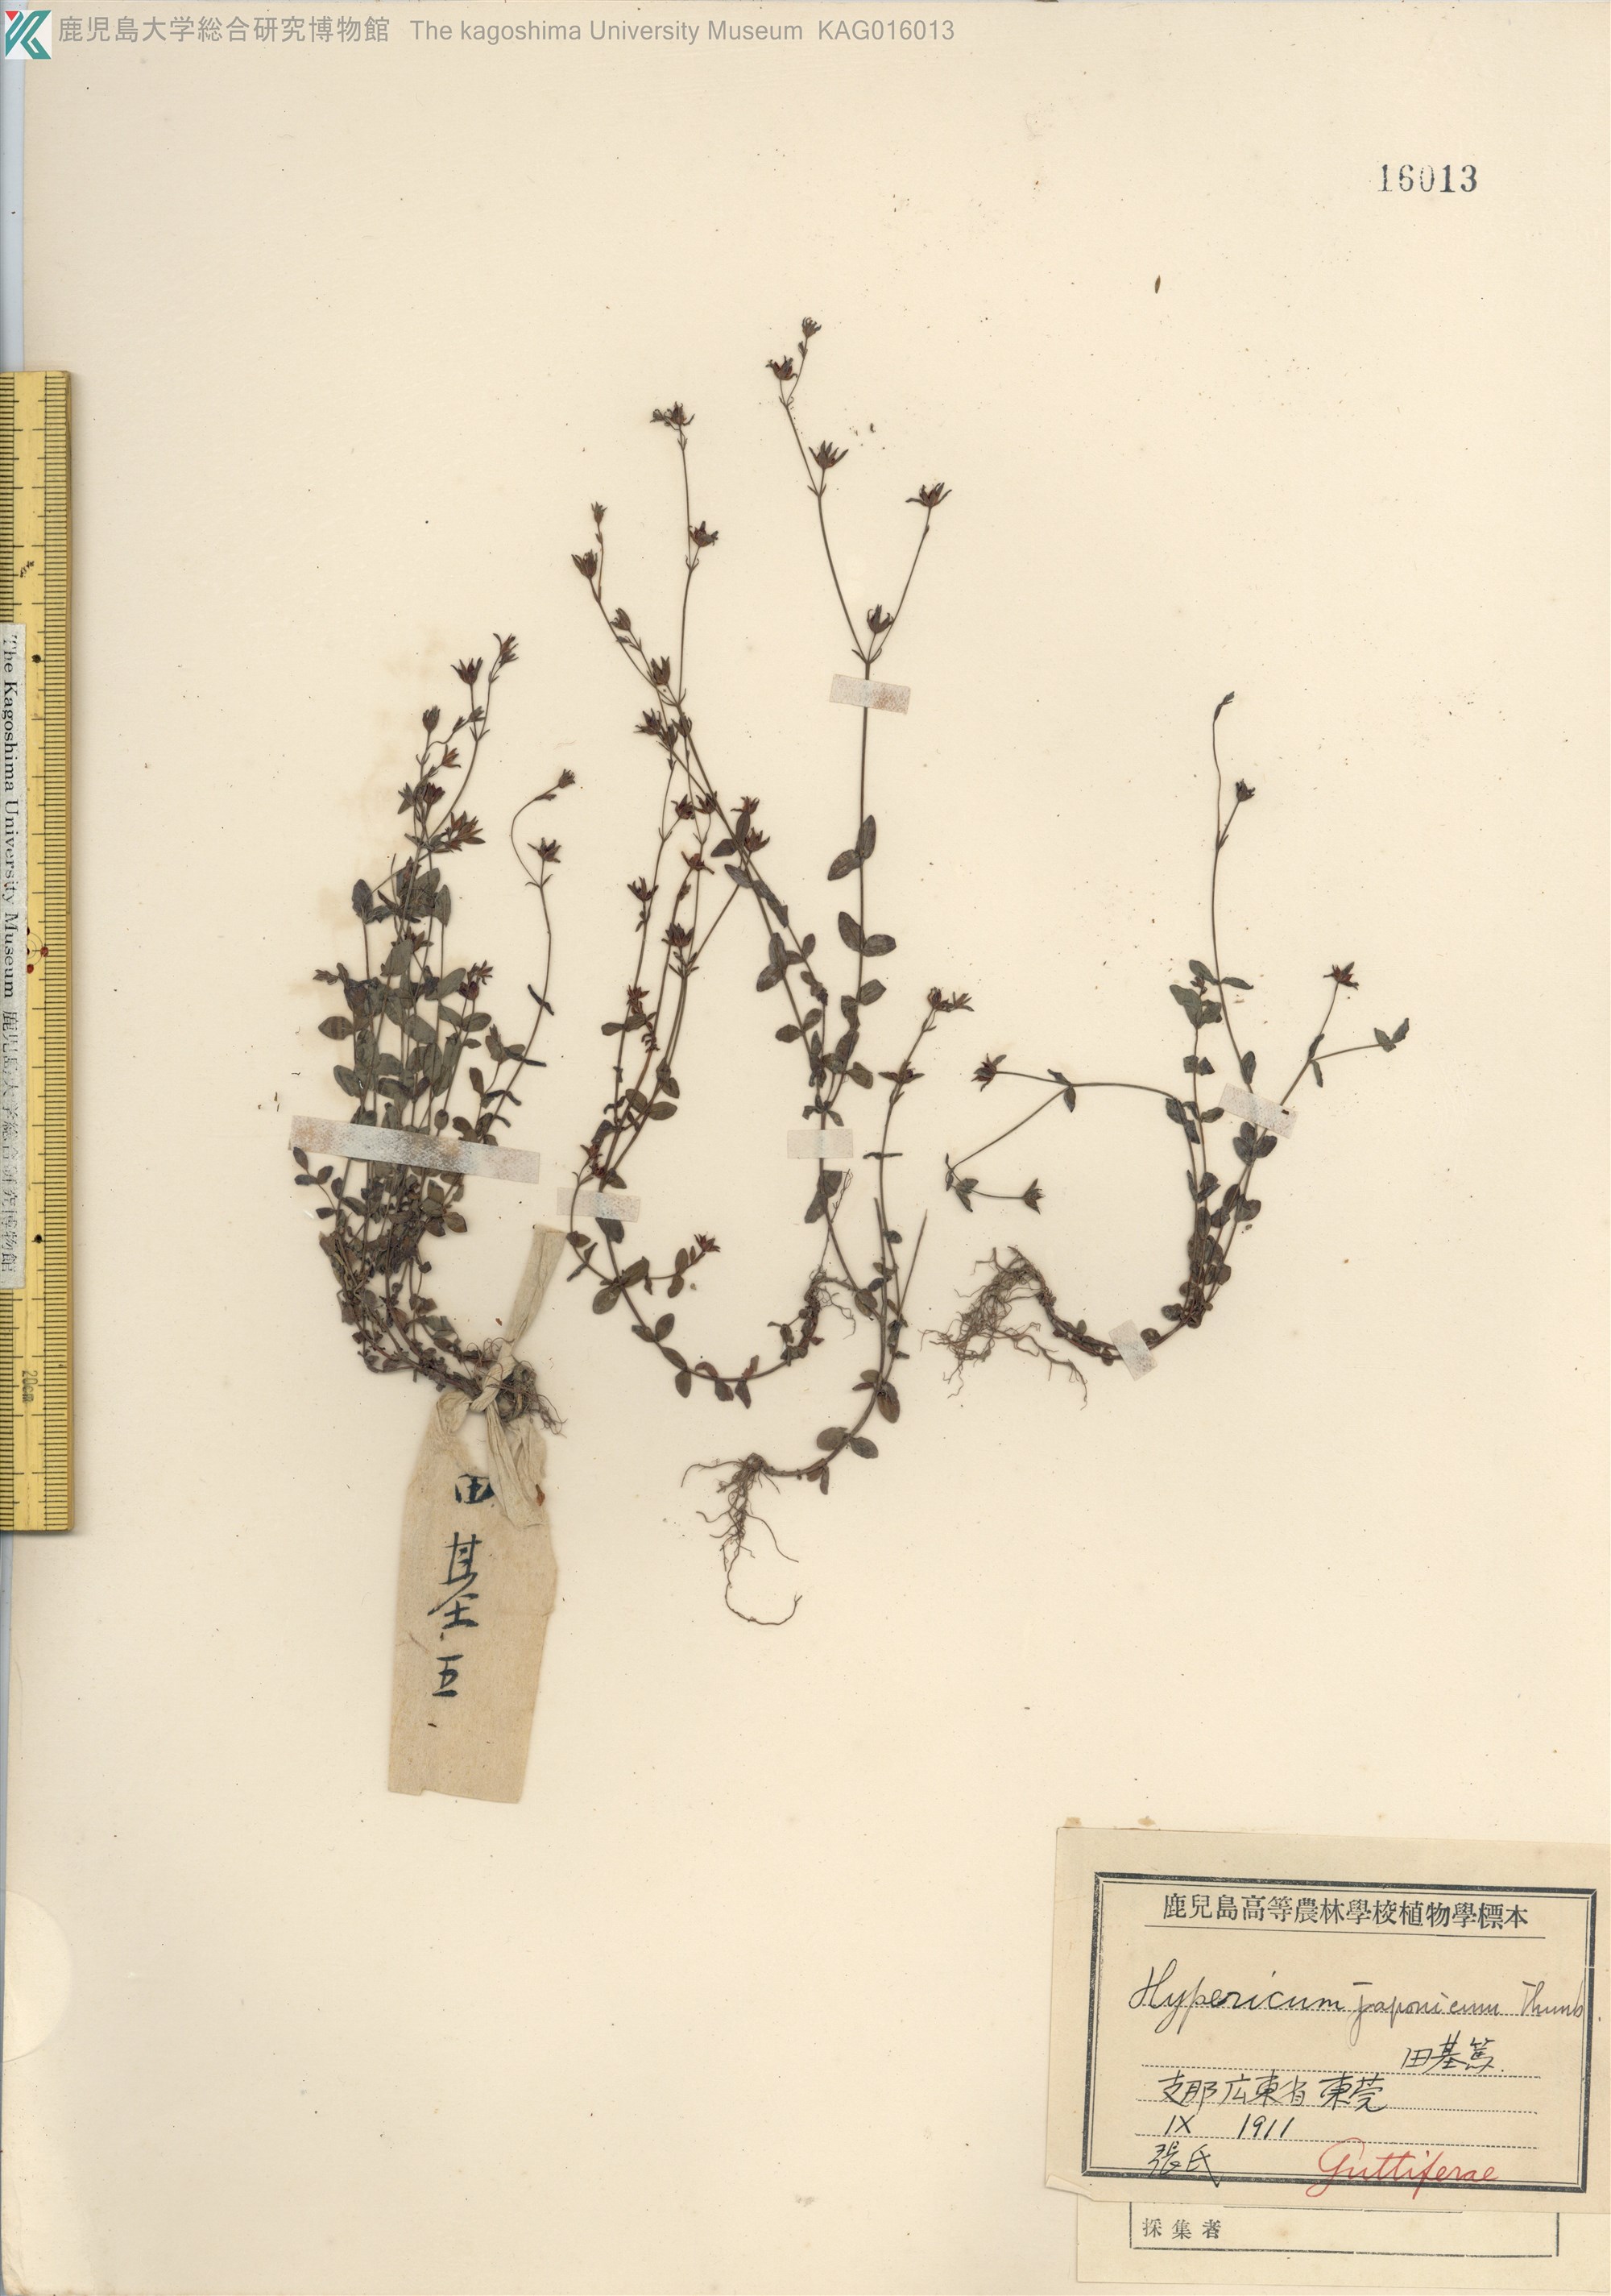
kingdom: Plantae
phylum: Tracheophyta
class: Magnoliopsida
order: Malpighiales
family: Hypericaceae
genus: Hypericum
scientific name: Hypericum japonicum
